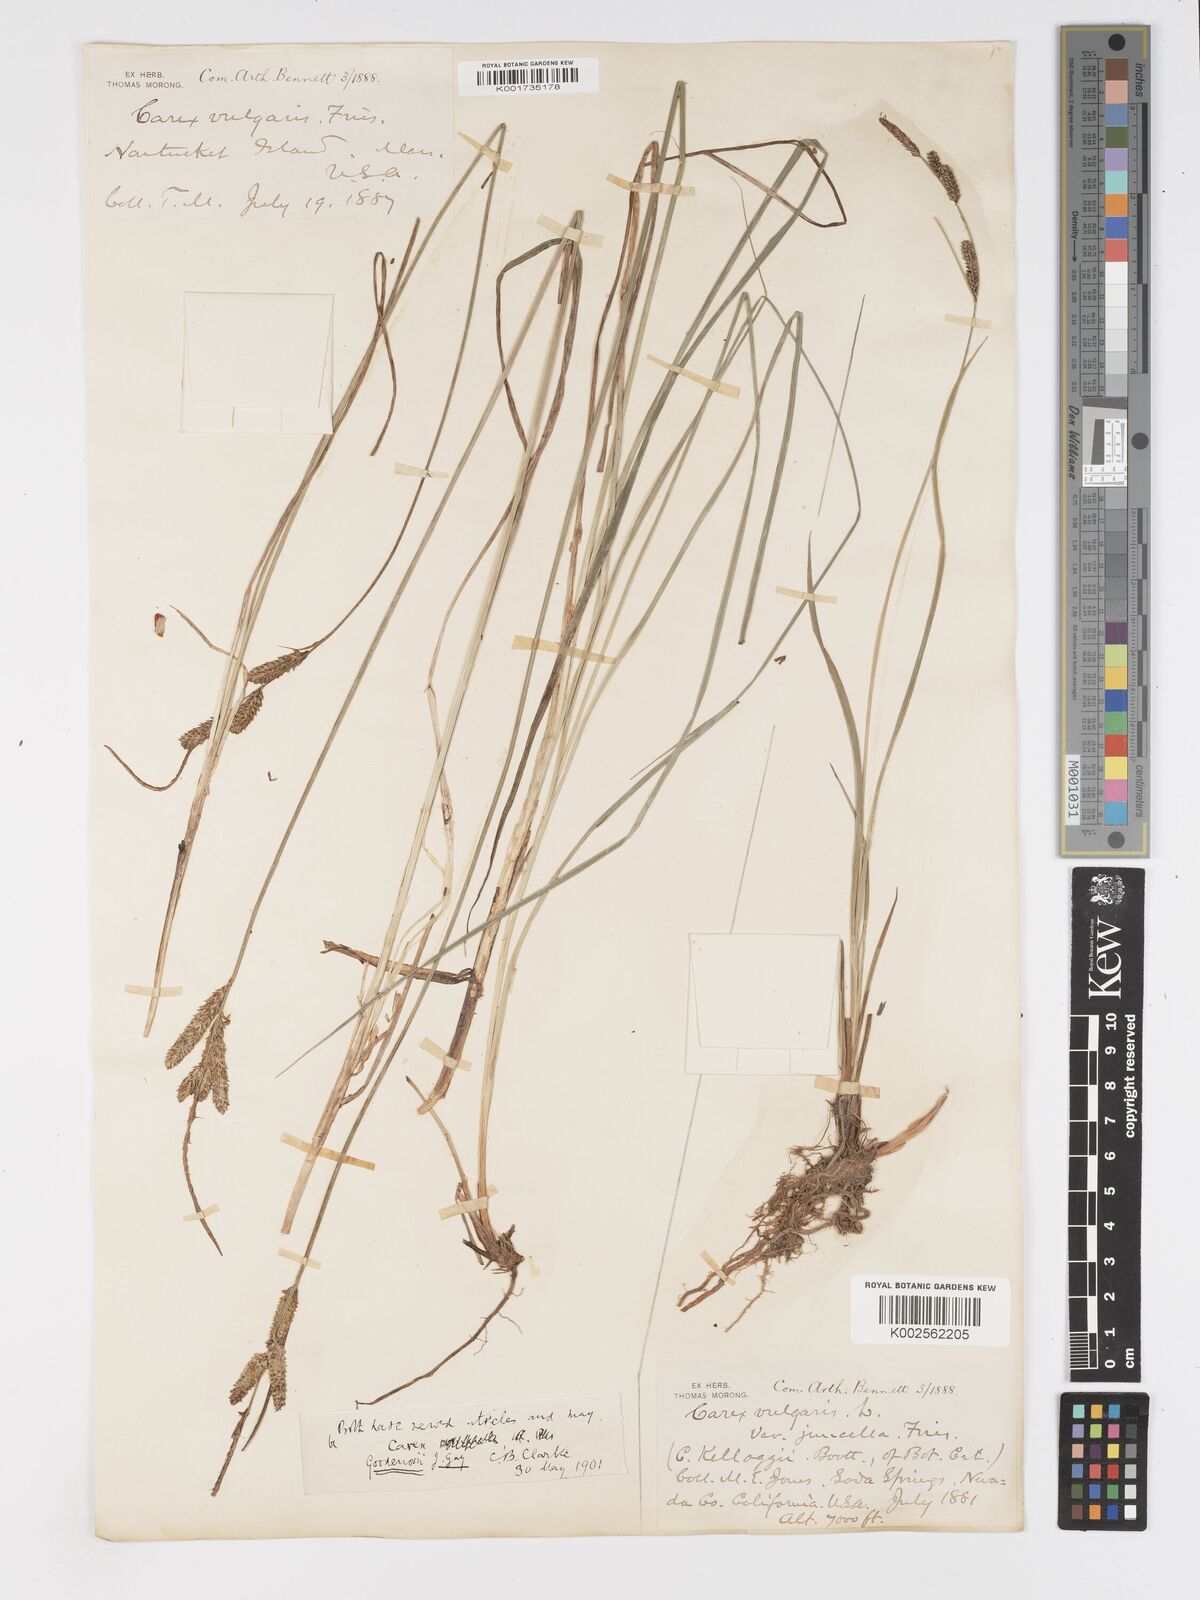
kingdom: Plantae
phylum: Tracheophyta
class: Liliopsida
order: Poales
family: Cyperaceae
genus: Carex
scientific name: Carex nigra
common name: Common sedge
